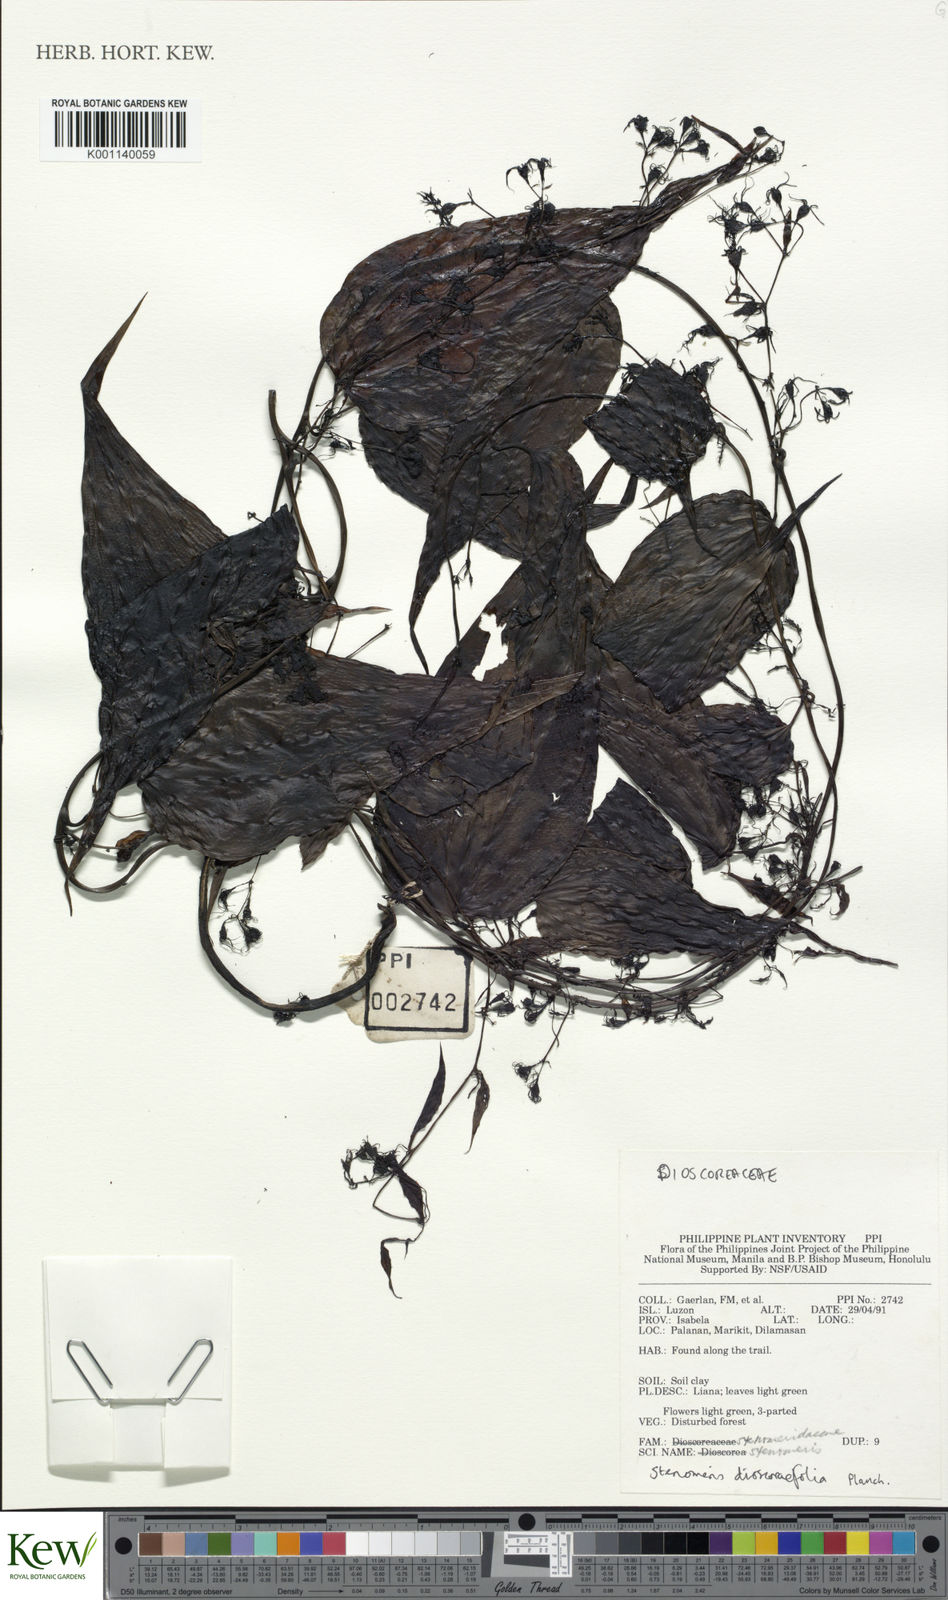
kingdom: Plantae
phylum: Tracheophyta
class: Liliopsida
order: Dioscoreales
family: Dioscoreaceae
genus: Stenomeris
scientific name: Stenomeris dioscoreifolia
